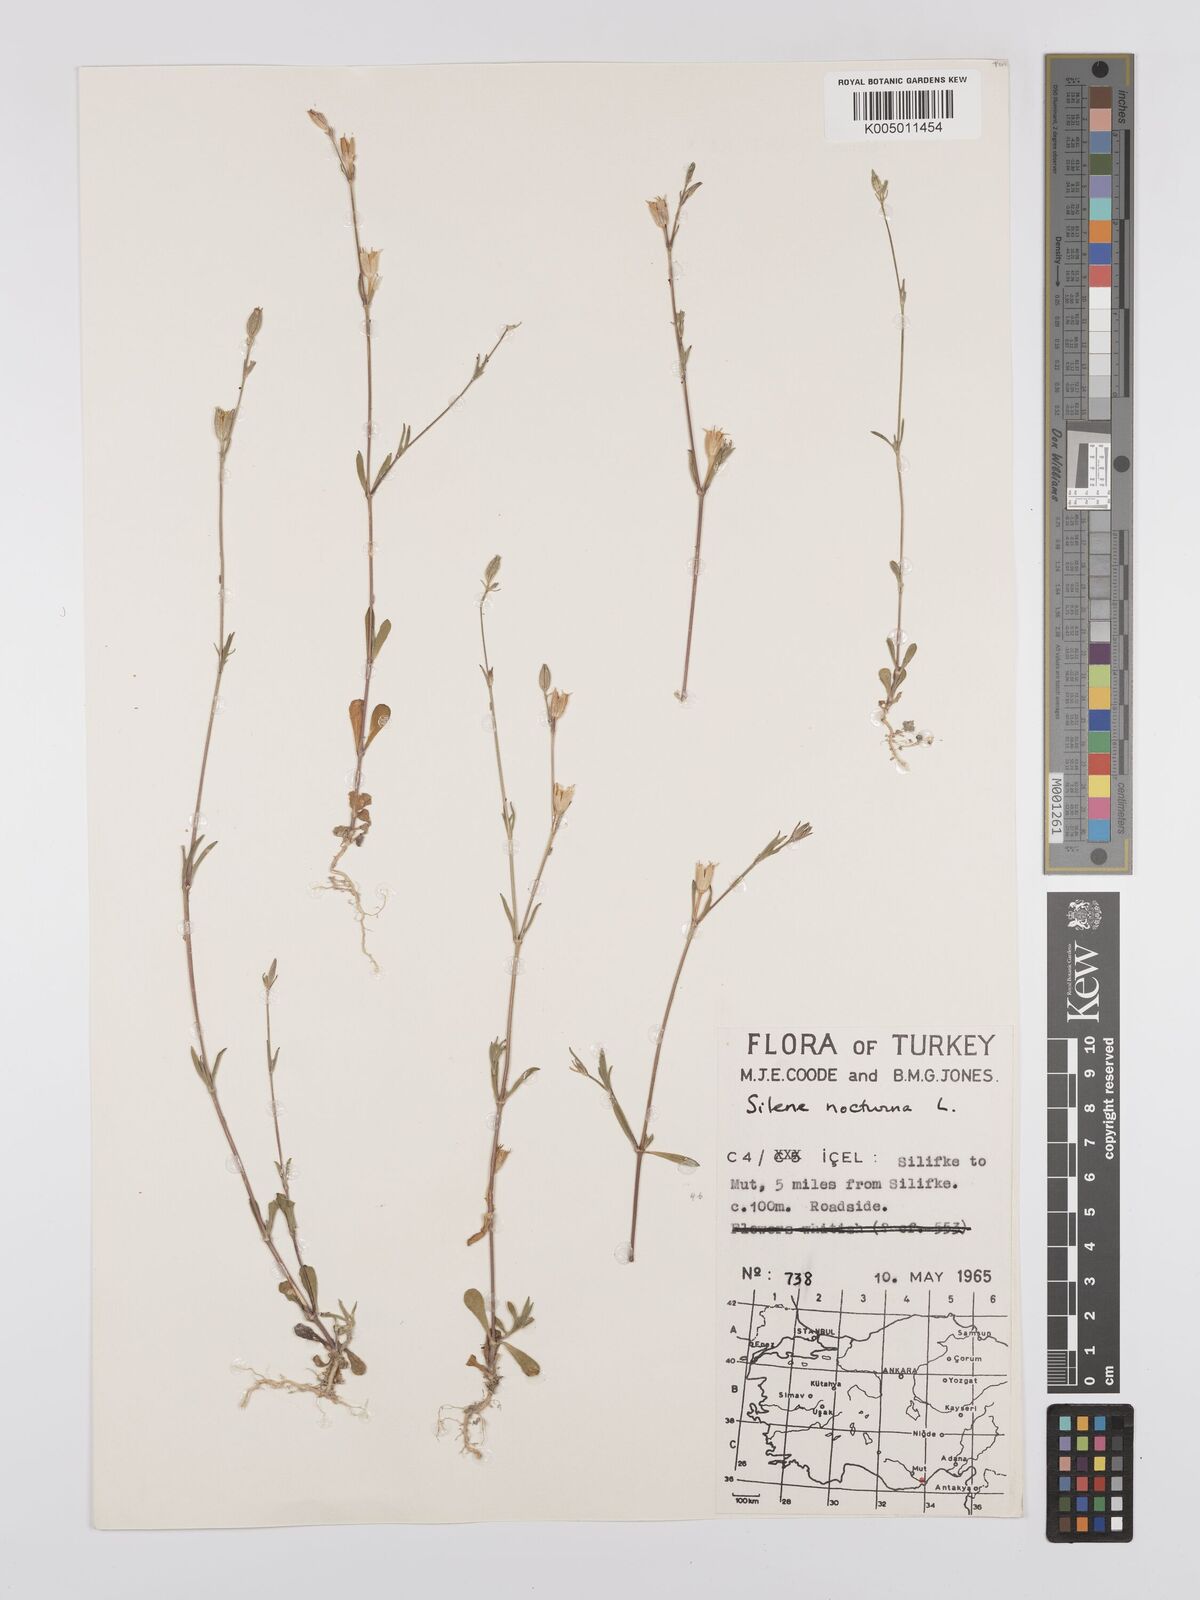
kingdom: Plantae
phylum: Tracheophyta
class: Magnoliopsida
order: Caryophyllales
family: Caryophyllaceae
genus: Silene
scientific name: Silene nocturna
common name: Mediterranean catchfly
